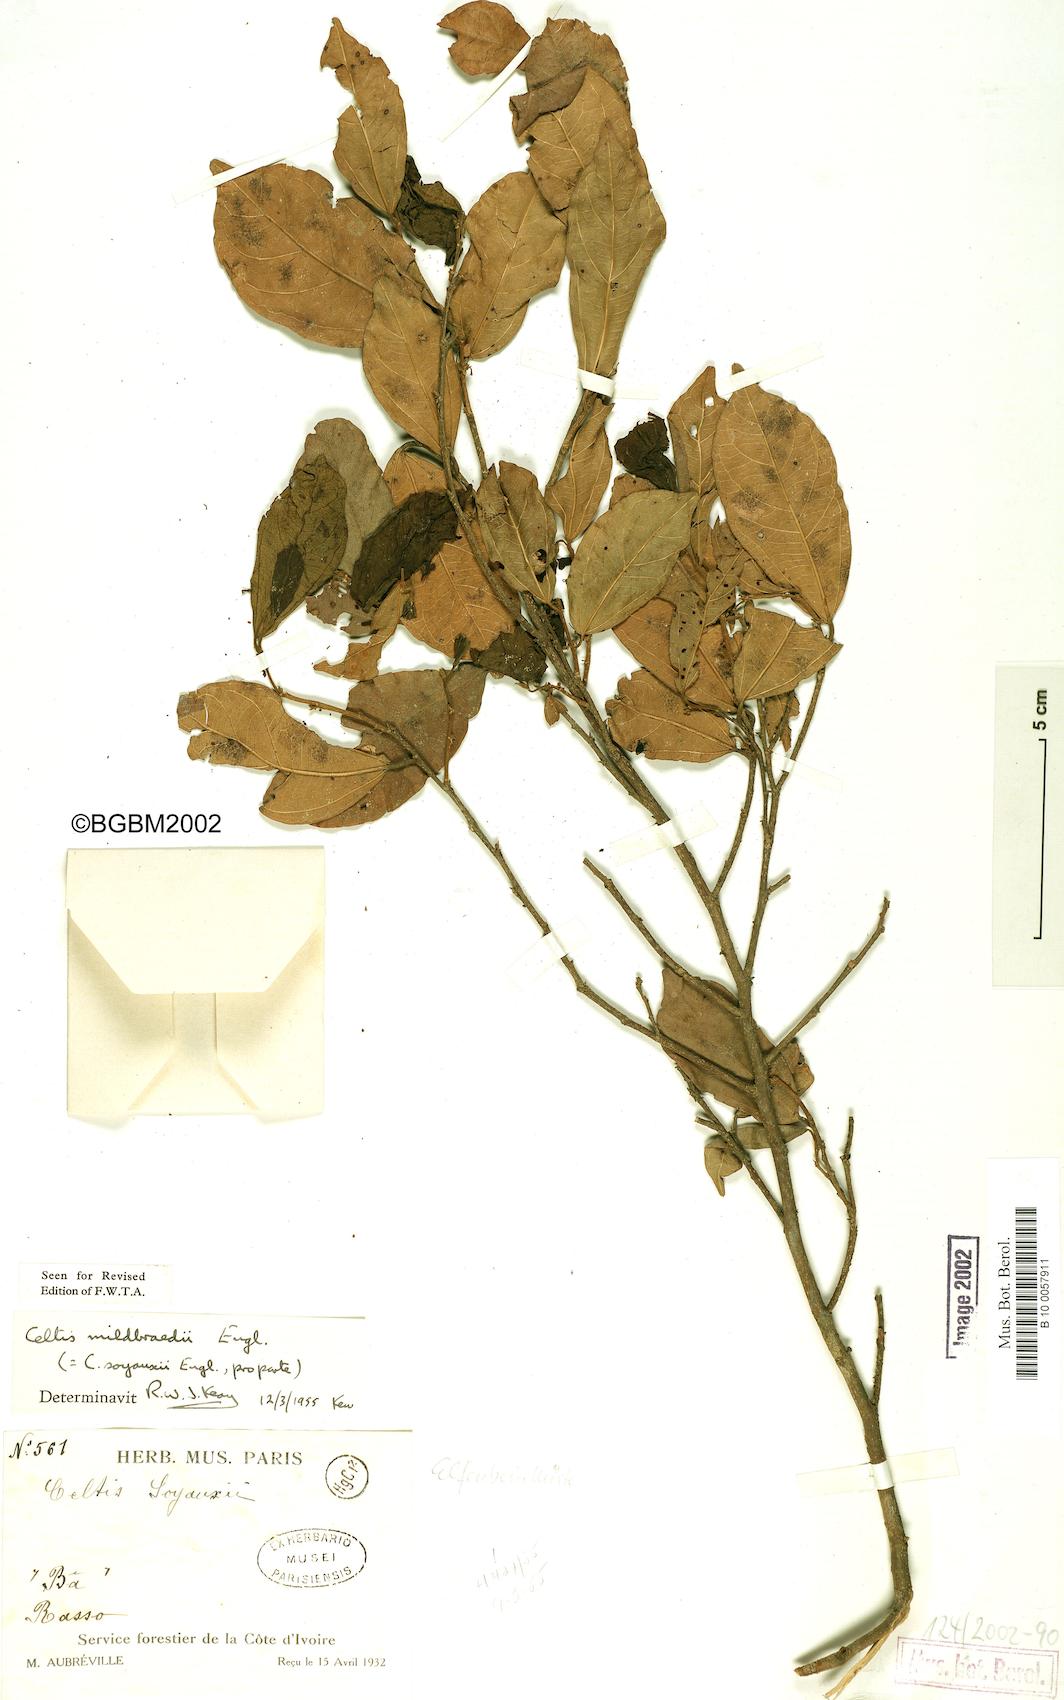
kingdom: Plantae
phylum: Tracheophyta
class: Magnoliopsida
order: Rosales
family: Cannabaceae
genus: Celtis
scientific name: Celtis zenkeri
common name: African celtis
